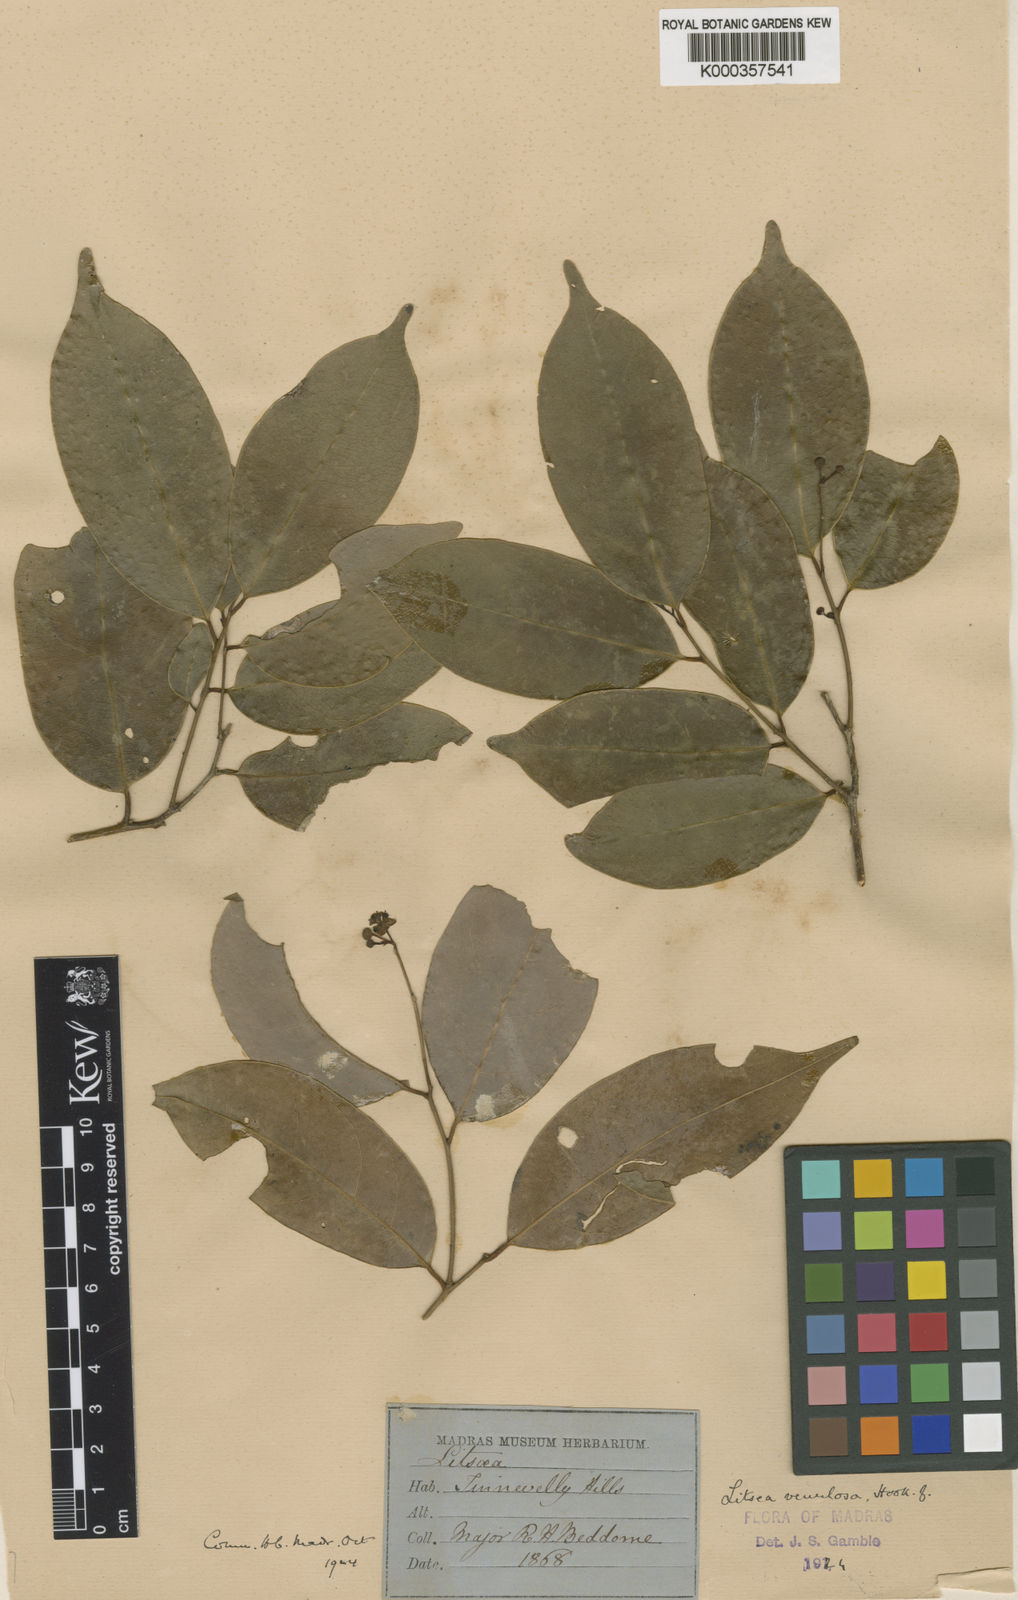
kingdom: Plantae
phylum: Tracheophyta
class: Magnoliopsida
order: Laurales
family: Lauraceae
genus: Litsea
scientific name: Litsea venulosa
